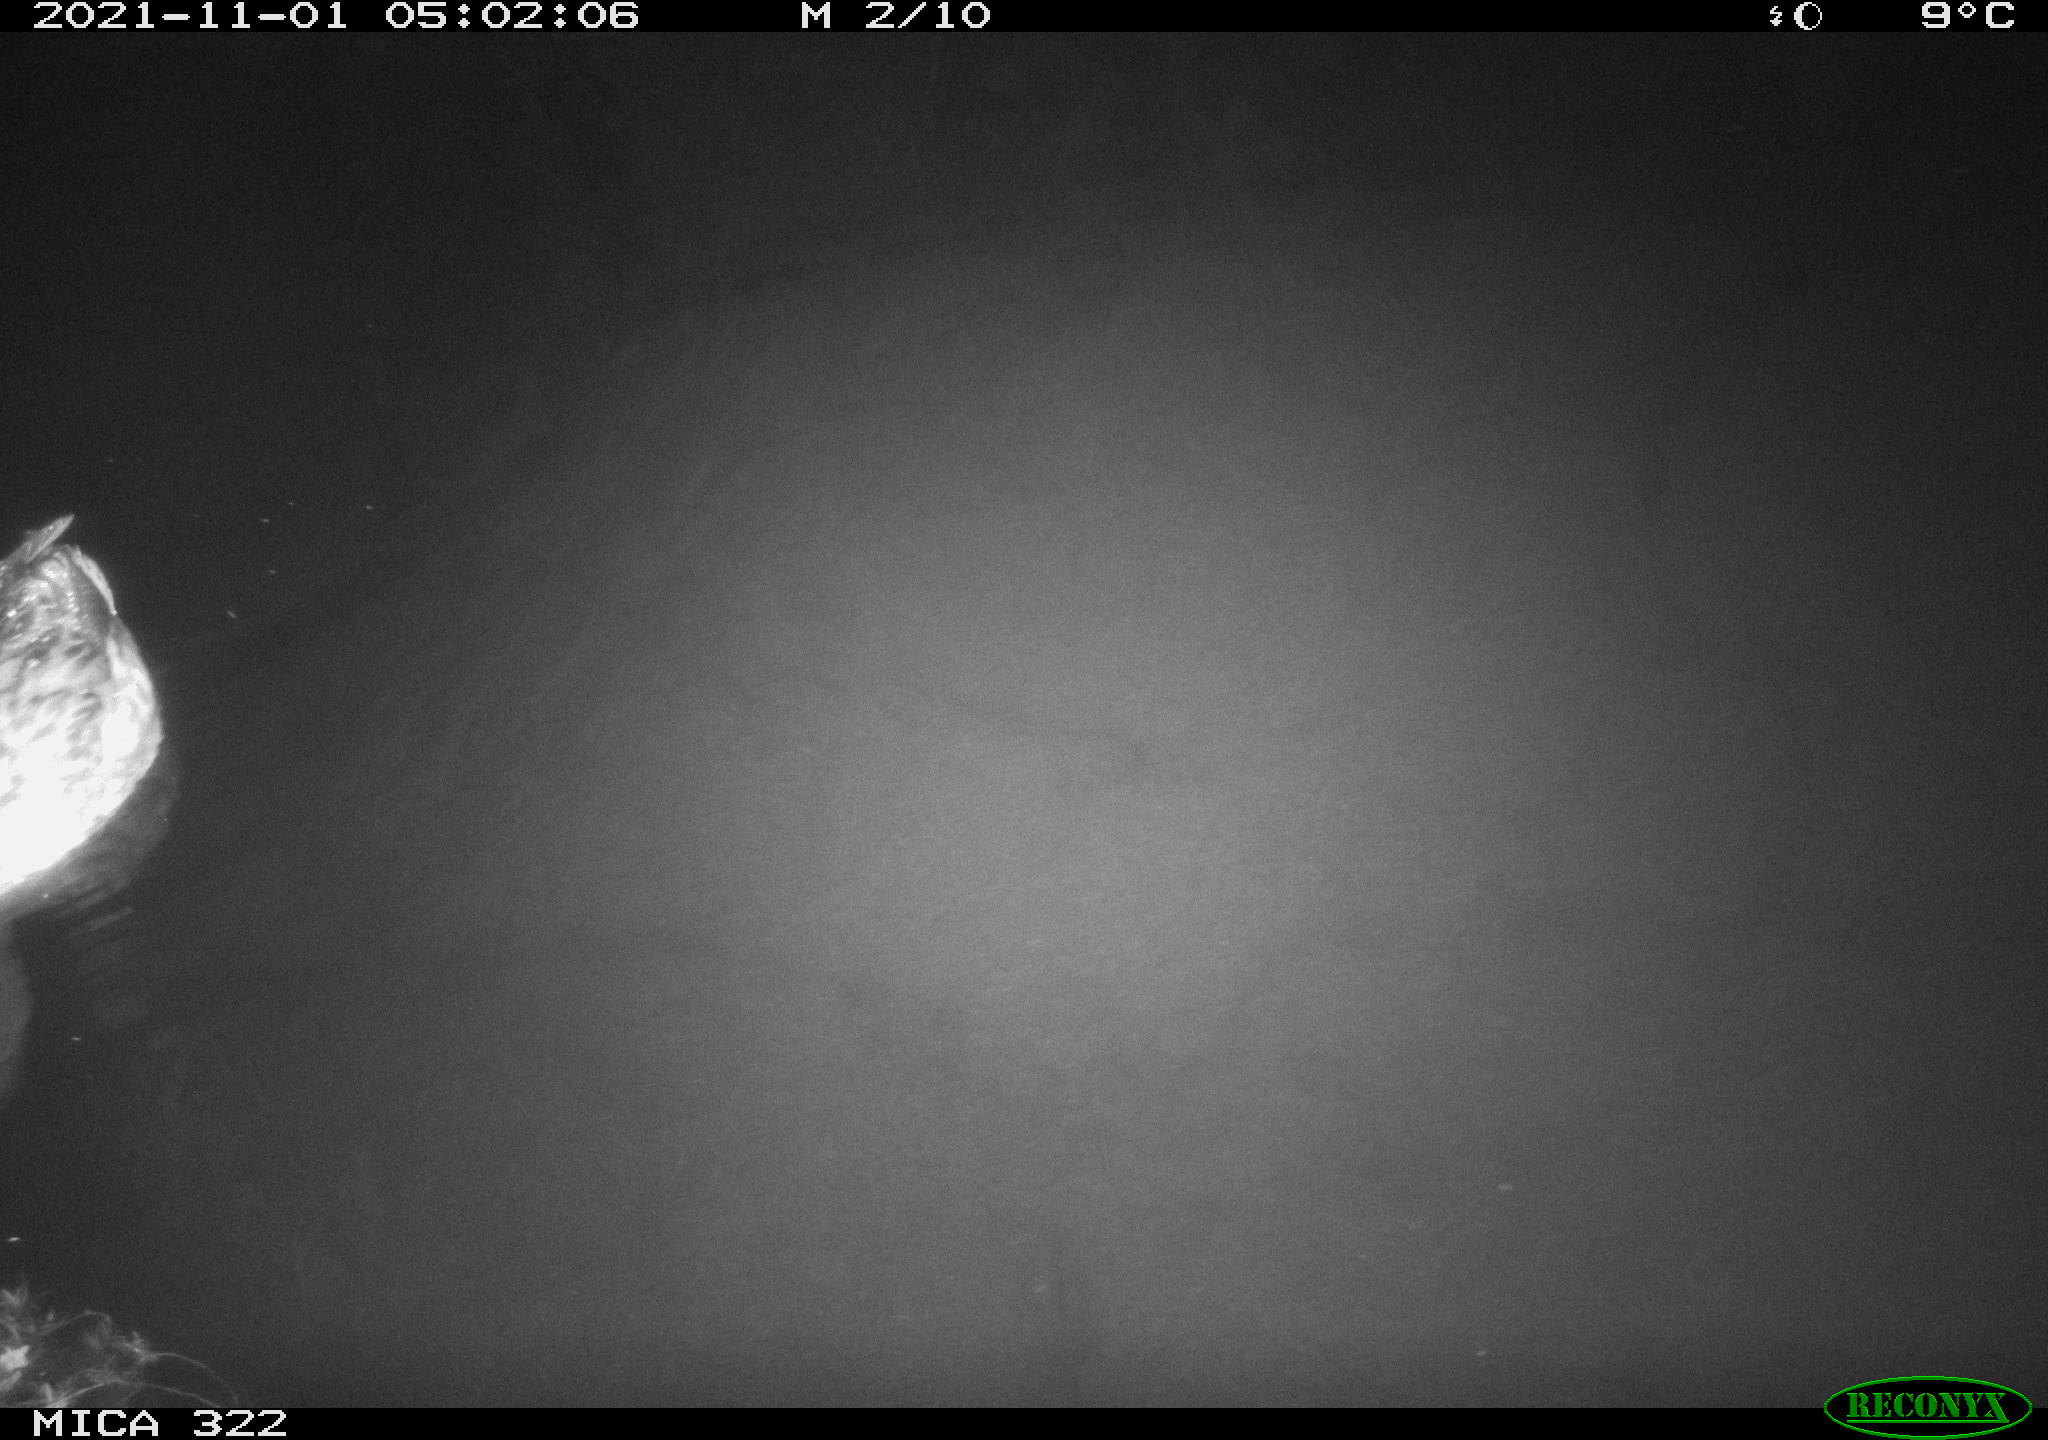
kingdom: Animalia
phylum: Chordata
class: Aves
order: Anseriformes
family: Anatidae
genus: Anas
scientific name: Anas platyrhynchos
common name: Mallard
